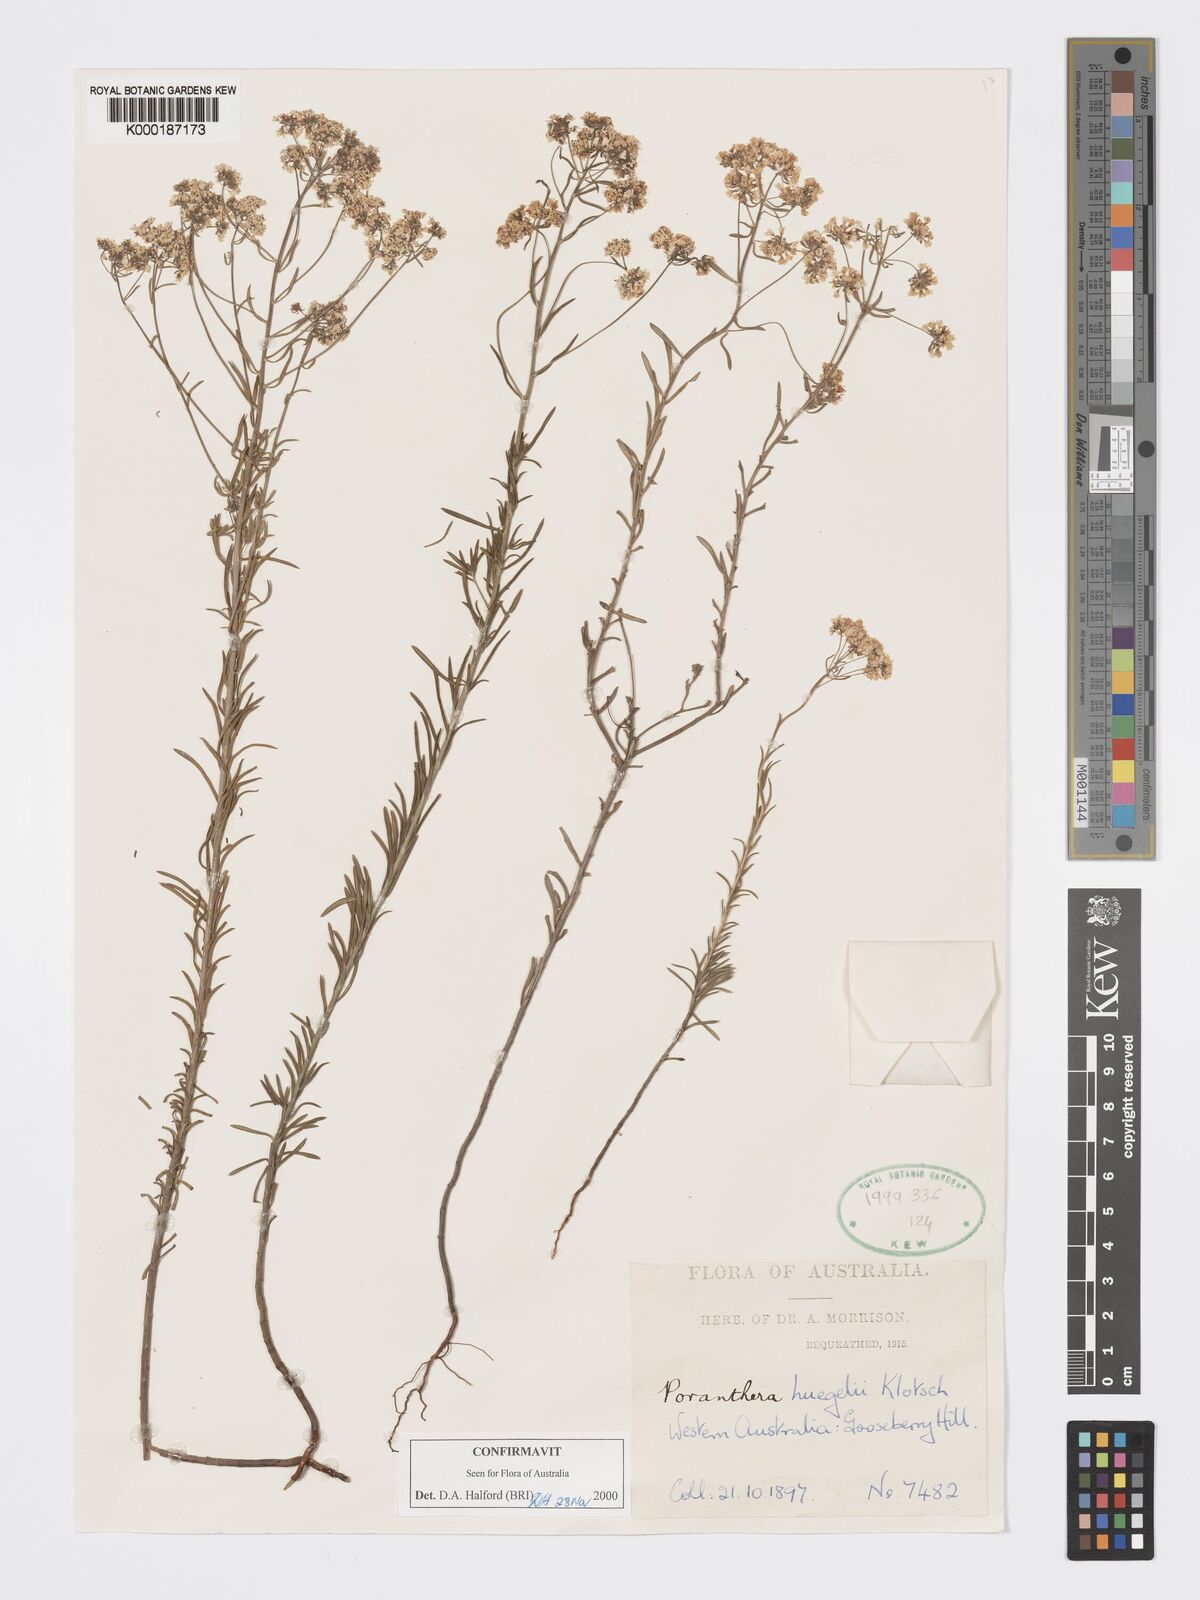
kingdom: Plantae
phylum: Tracheophyta
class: Magnoliopsida
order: Malpighiales
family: Phyllanthaceae
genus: Poranthera
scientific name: Poranthera huegelii
